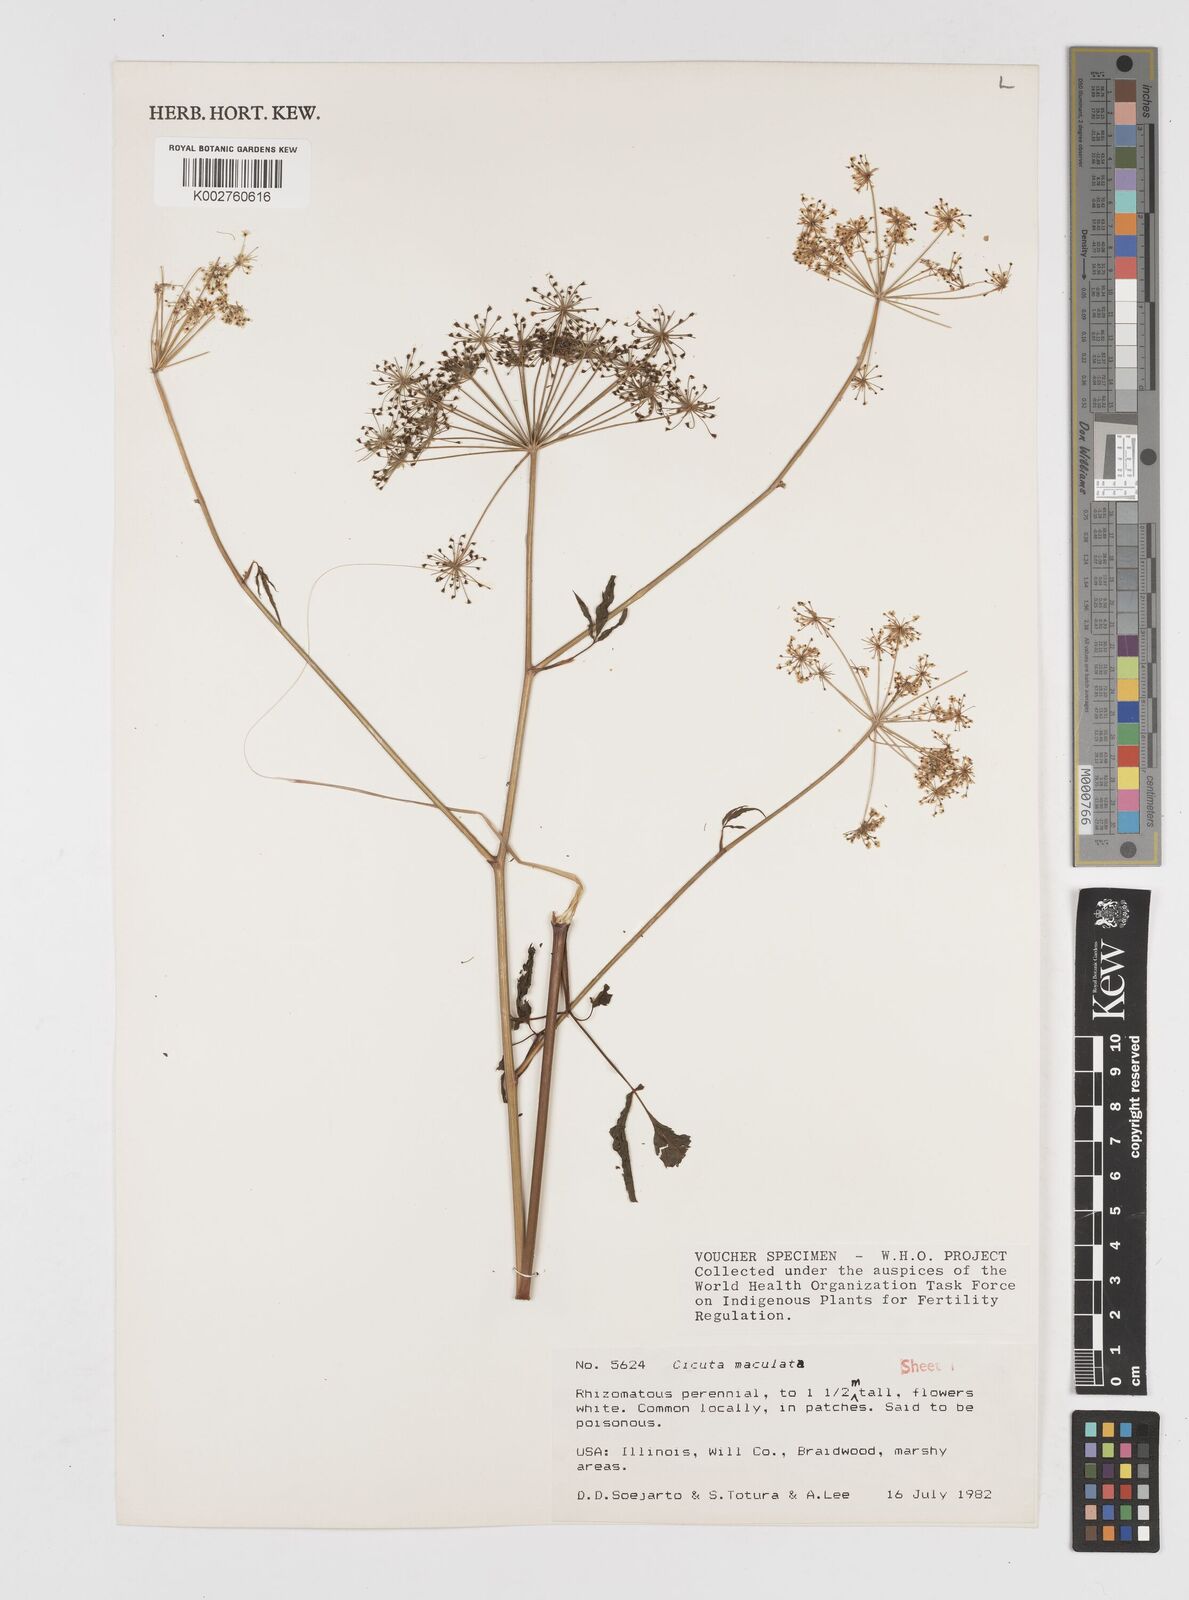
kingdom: Plantae
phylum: Tracheophyta
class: Magnoliopsida
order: Apiales
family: Apiaceae
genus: Cicuta
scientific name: Cicuta maculata
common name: Spotted cowbane
